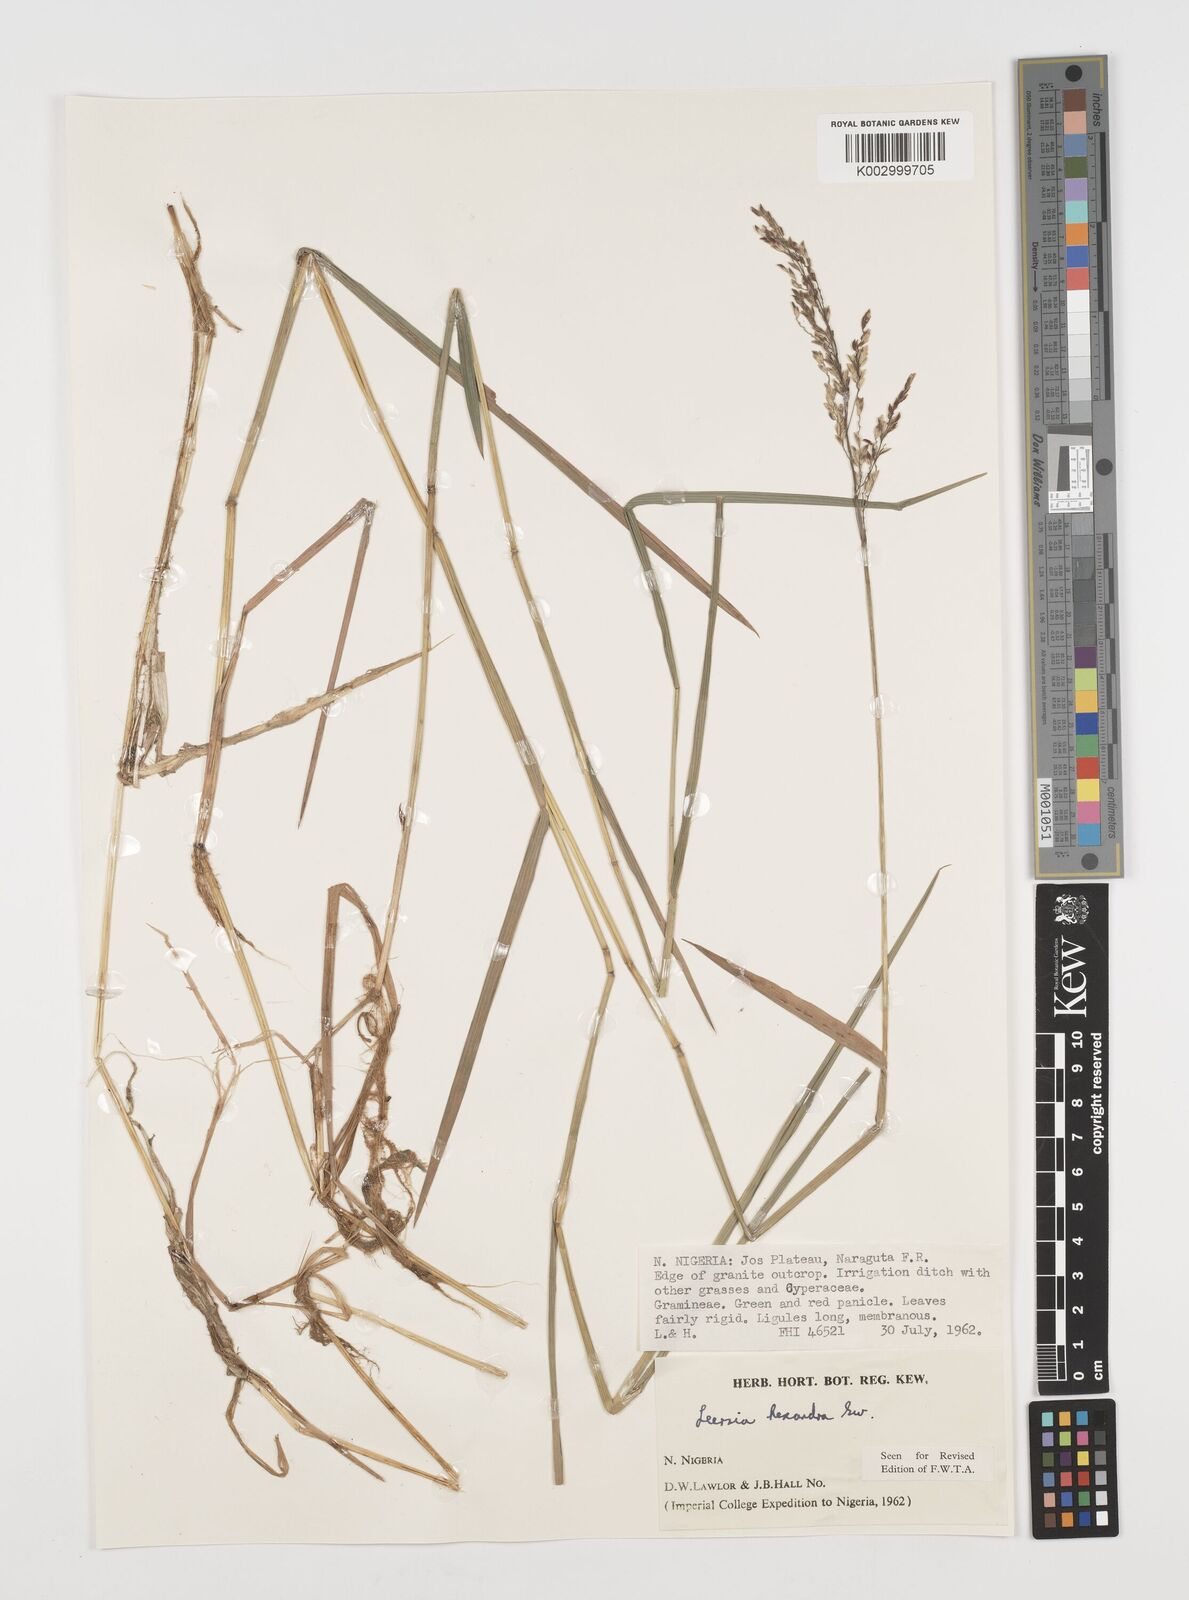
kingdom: Plantae
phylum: Tracheophyta
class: Liliopsida
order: Poales
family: Poaceae
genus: Leersia
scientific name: Leersia hexandra
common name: Southern cut grass
